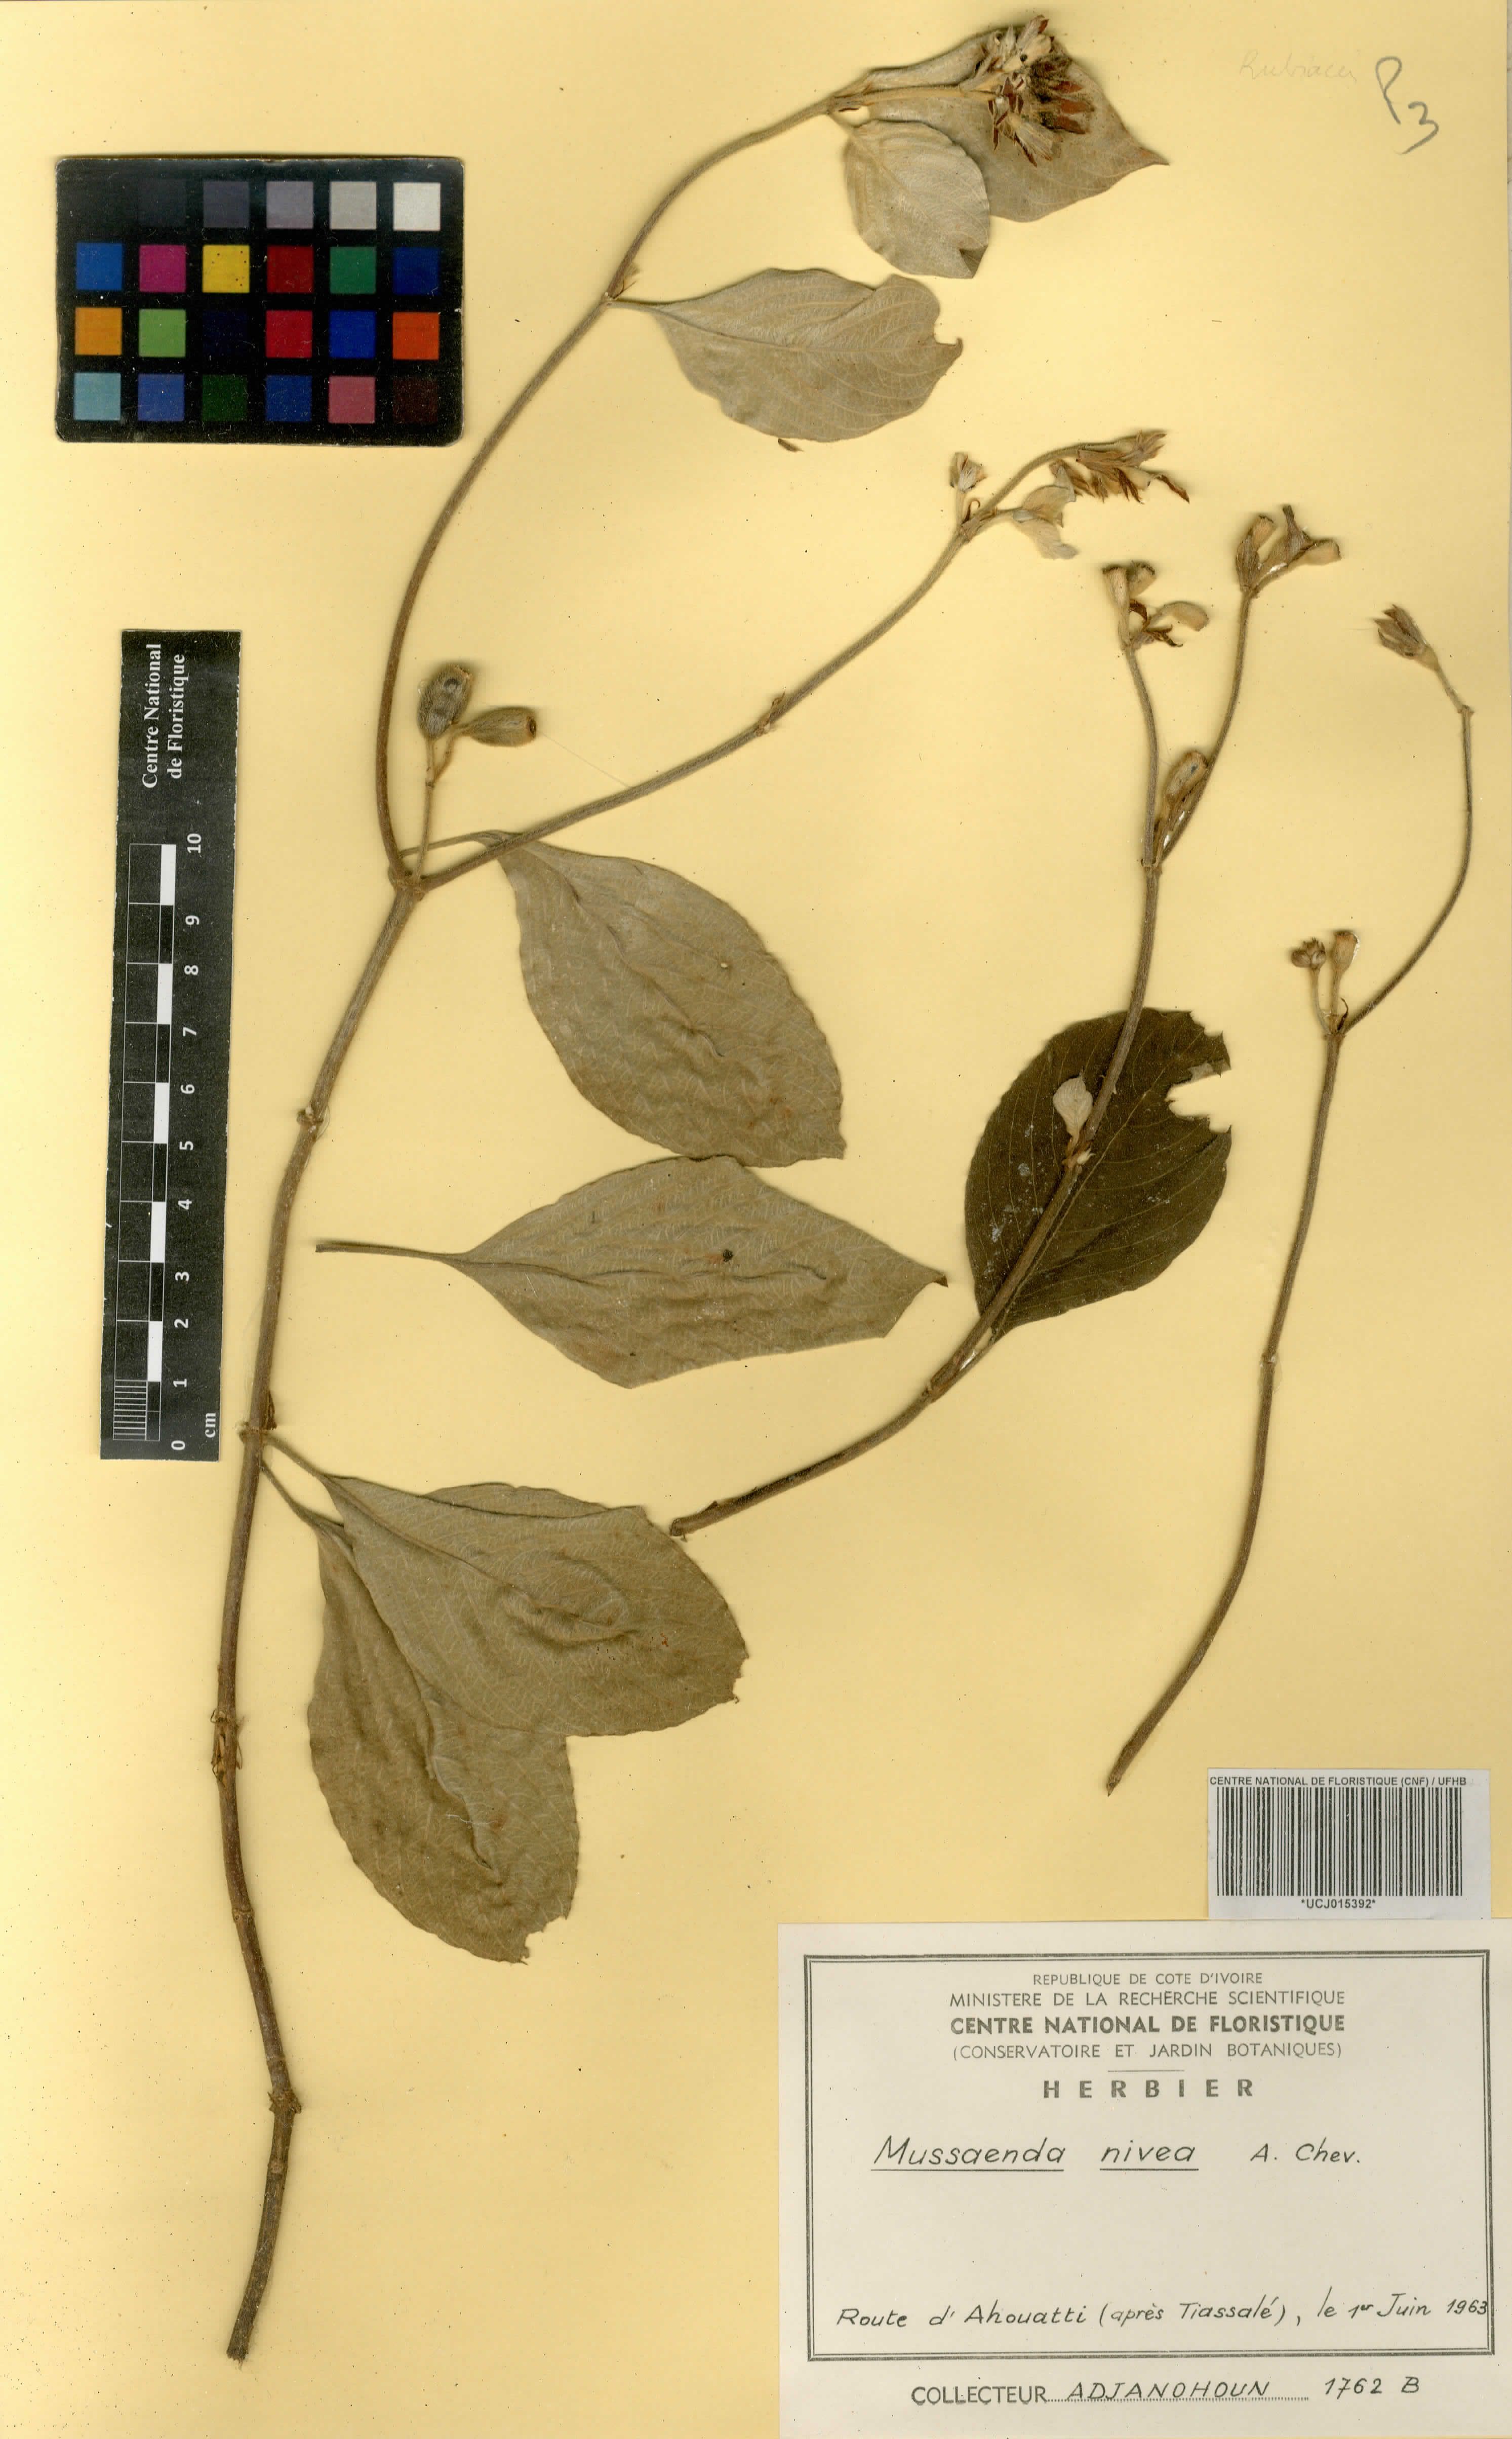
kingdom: Plantae
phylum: Tracheophyta
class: Magnoliopsida
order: Gentianales
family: Rubiaceae
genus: Mussaenda
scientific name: Mussaenda nivea
